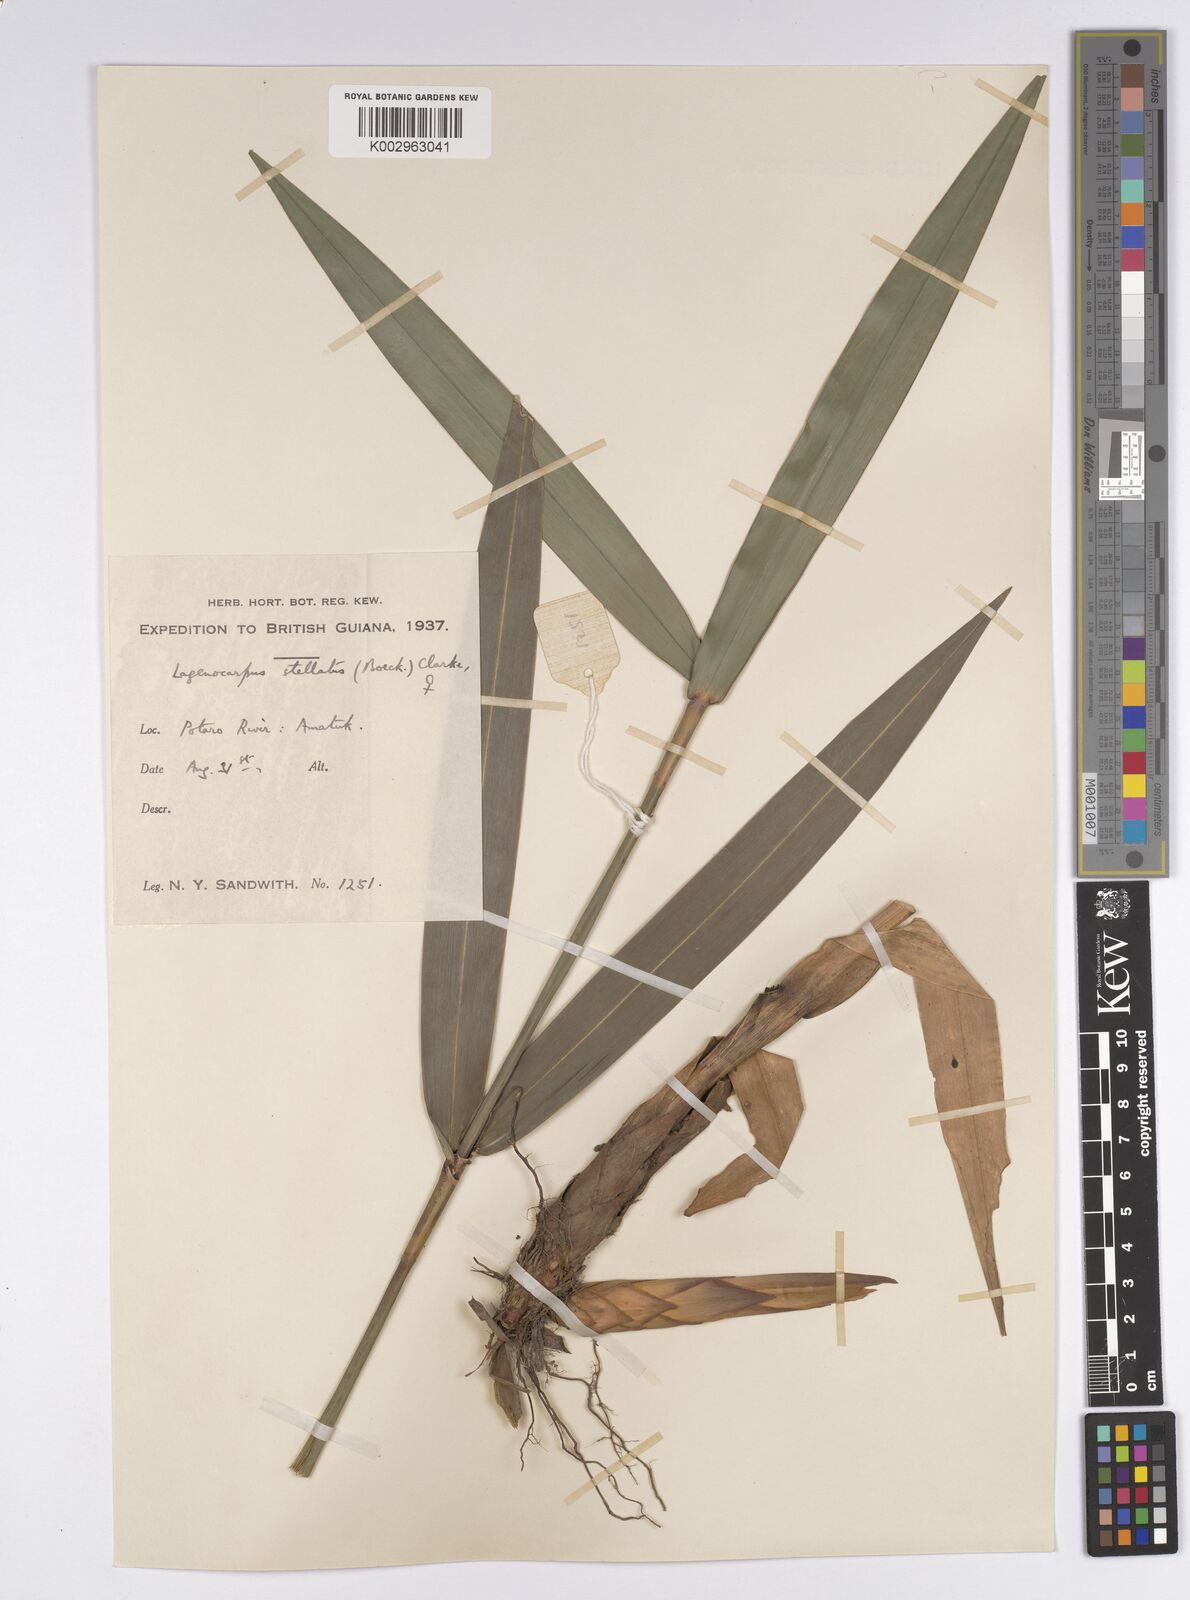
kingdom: Plantae
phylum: Tracheophyta
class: Liliopsida
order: Poales
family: Cyperaceae
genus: Didymiandrum
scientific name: Didymiandrum stellatum
